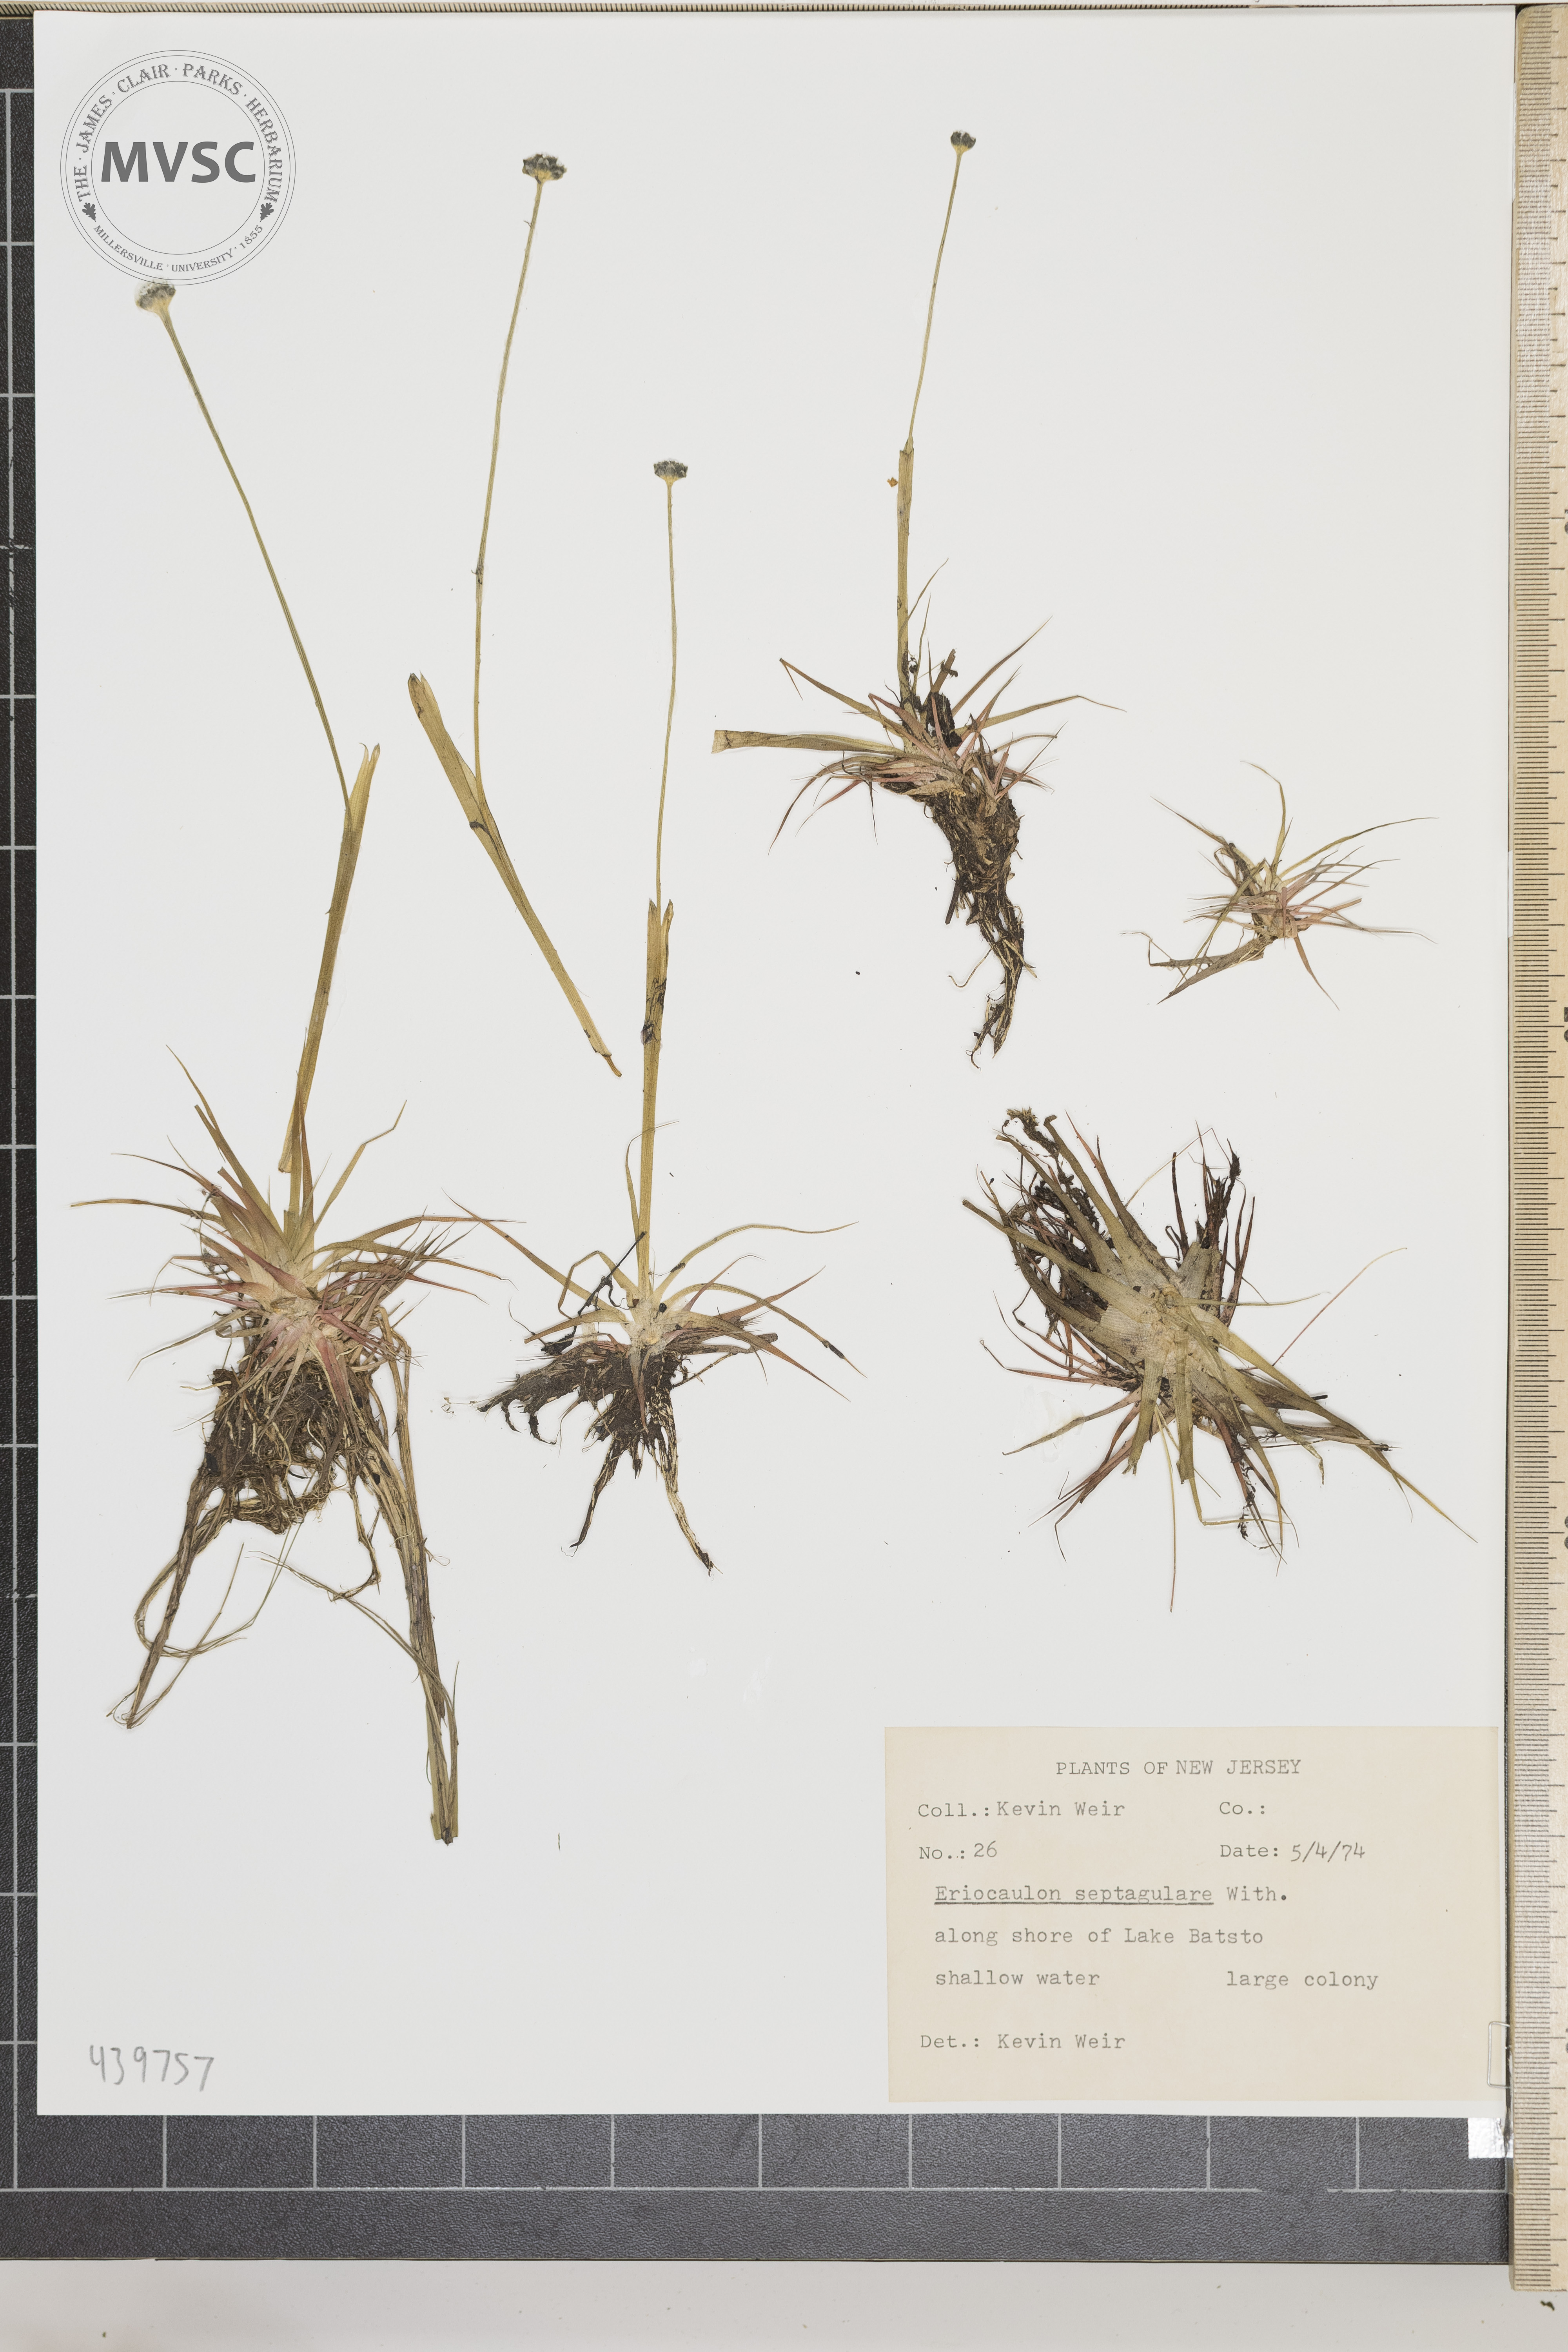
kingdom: Plantae
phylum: Tracheophyta
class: Liliopsida
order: Poales
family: Eriocaulaceae
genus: Eriocaulon
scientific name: Eriocaulon aquaticum
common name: Pipewort
